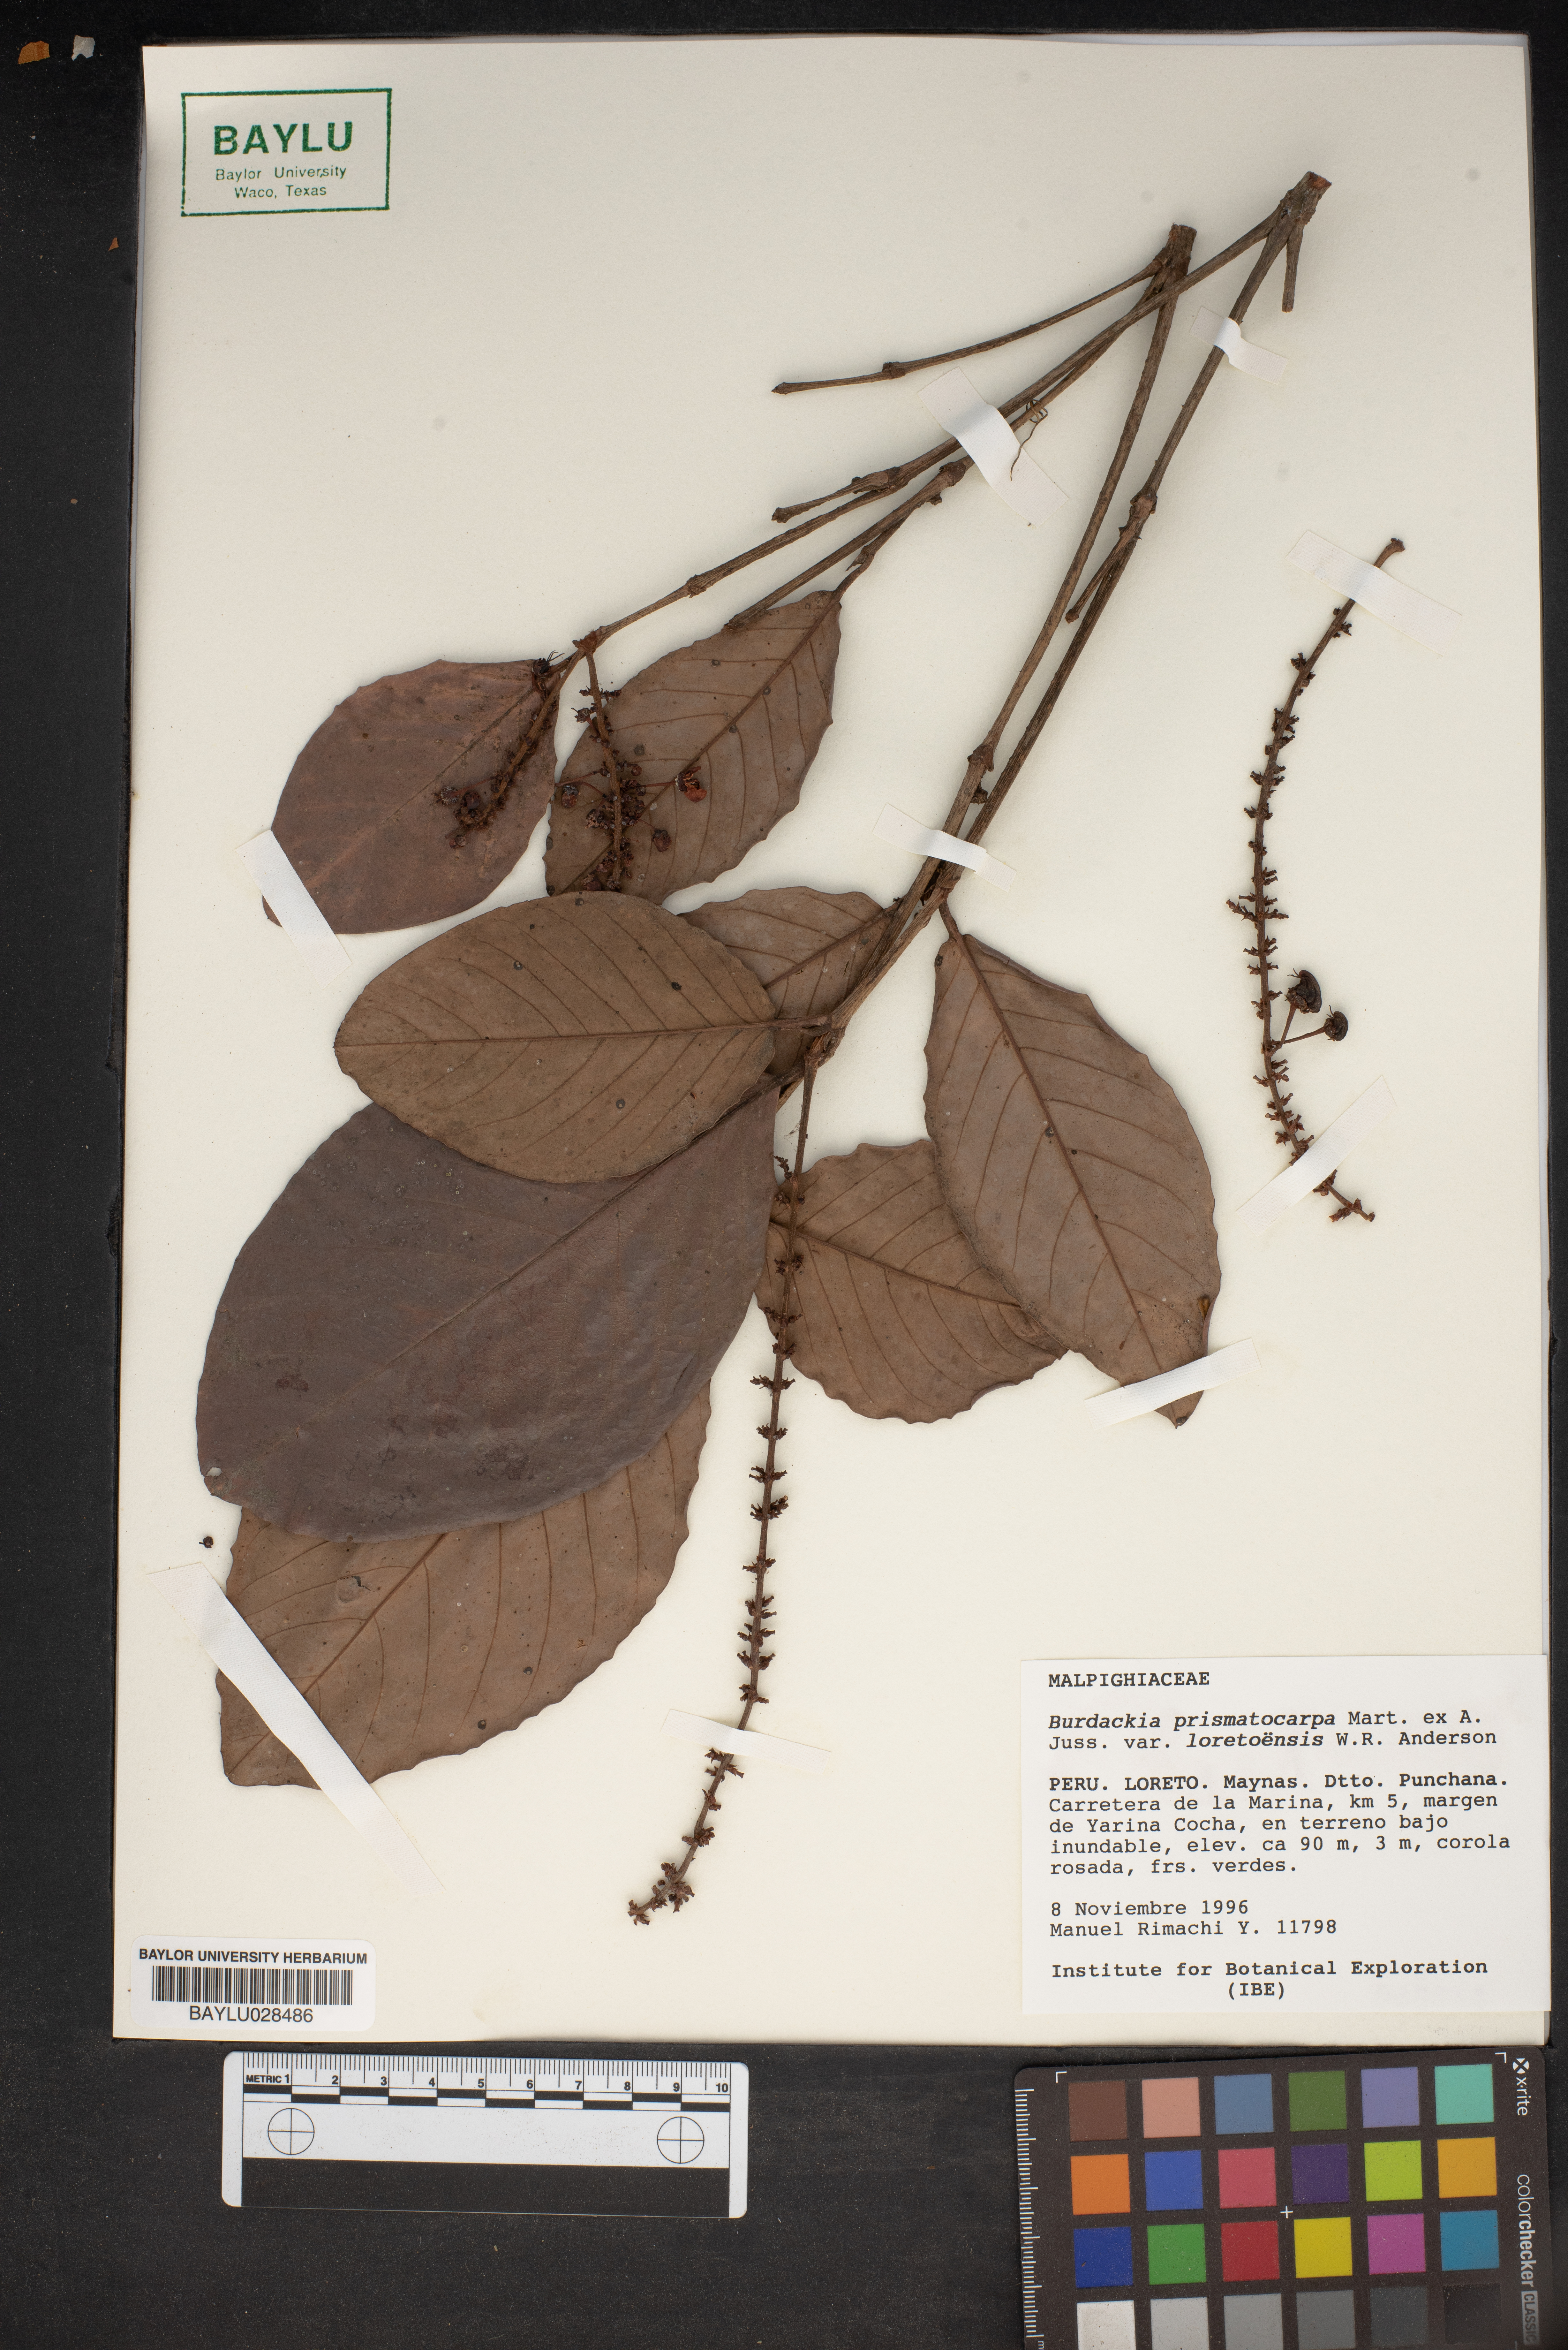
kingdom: Plantae
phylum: Tracheophyta
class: Magnoliopsida
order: Malpighiales
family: Malpighiaceae
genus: Burdachia
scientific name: Burdachia prismatocarpa
